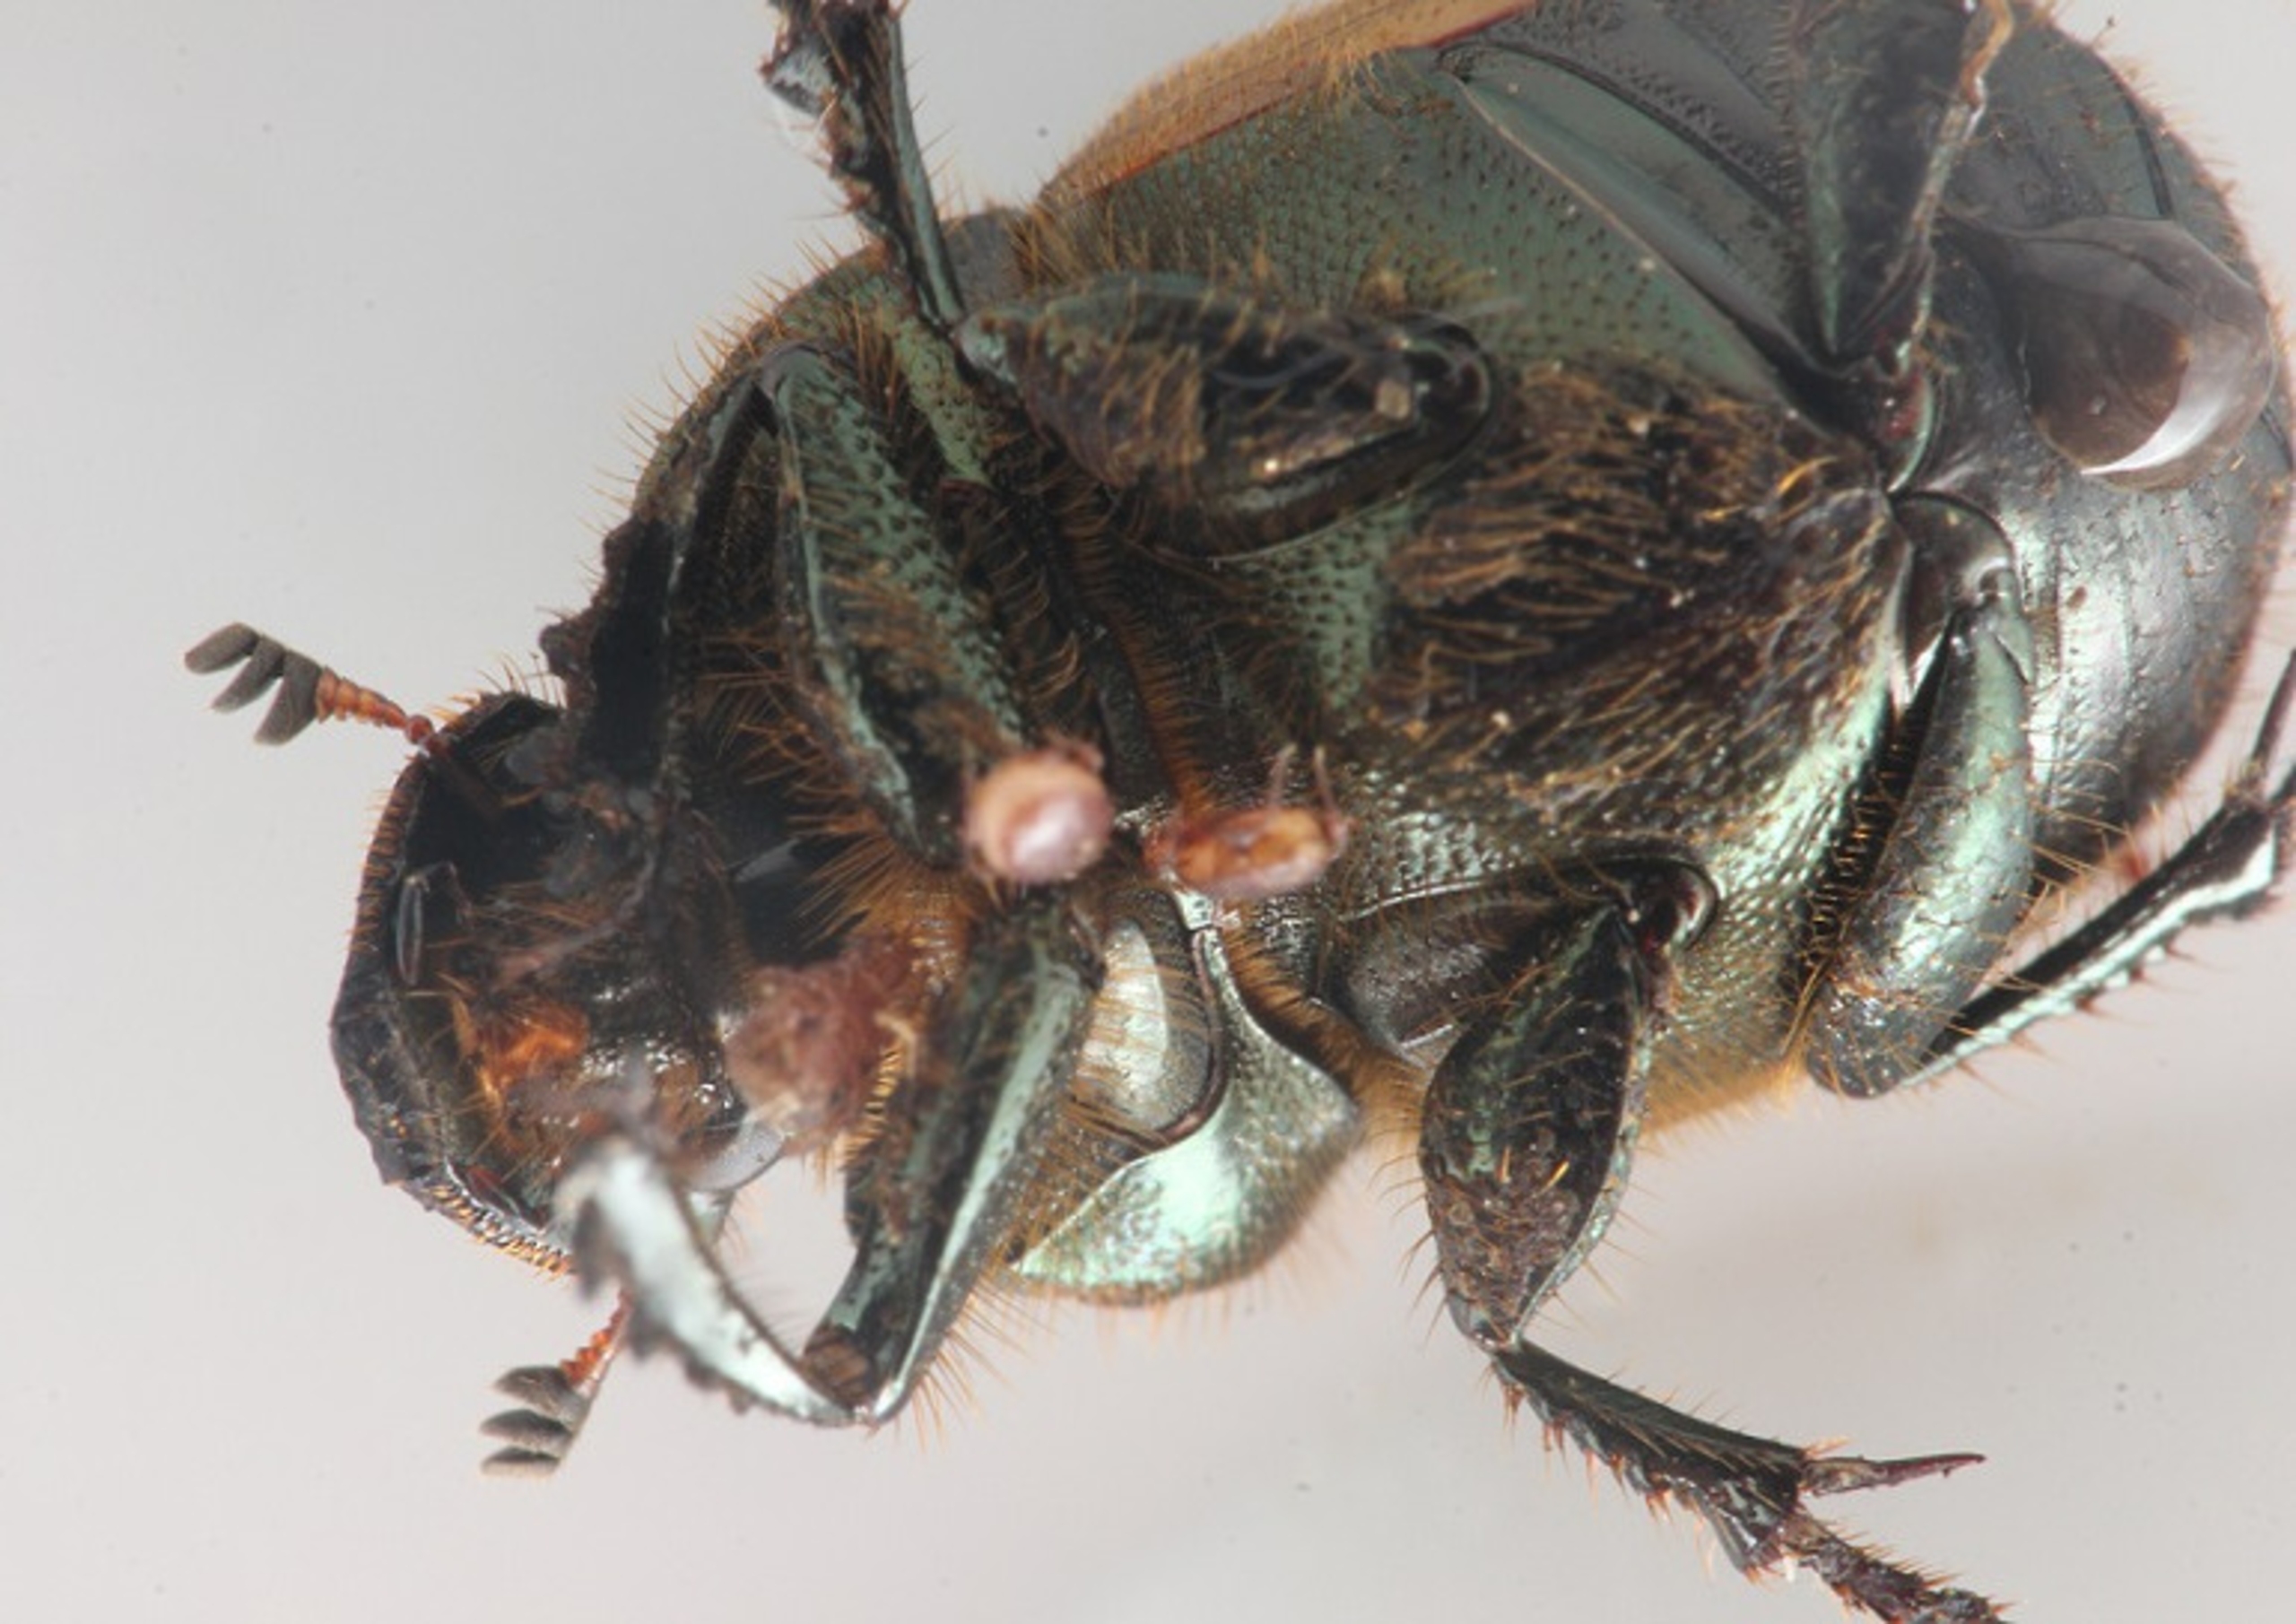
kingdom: Animalia
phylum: Arthropoda
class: Insecta
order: Coleoptera
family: Scarabaeidae
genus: Onthophagus
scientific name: Onthophagus coenobita
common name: Skinnende møggraver
